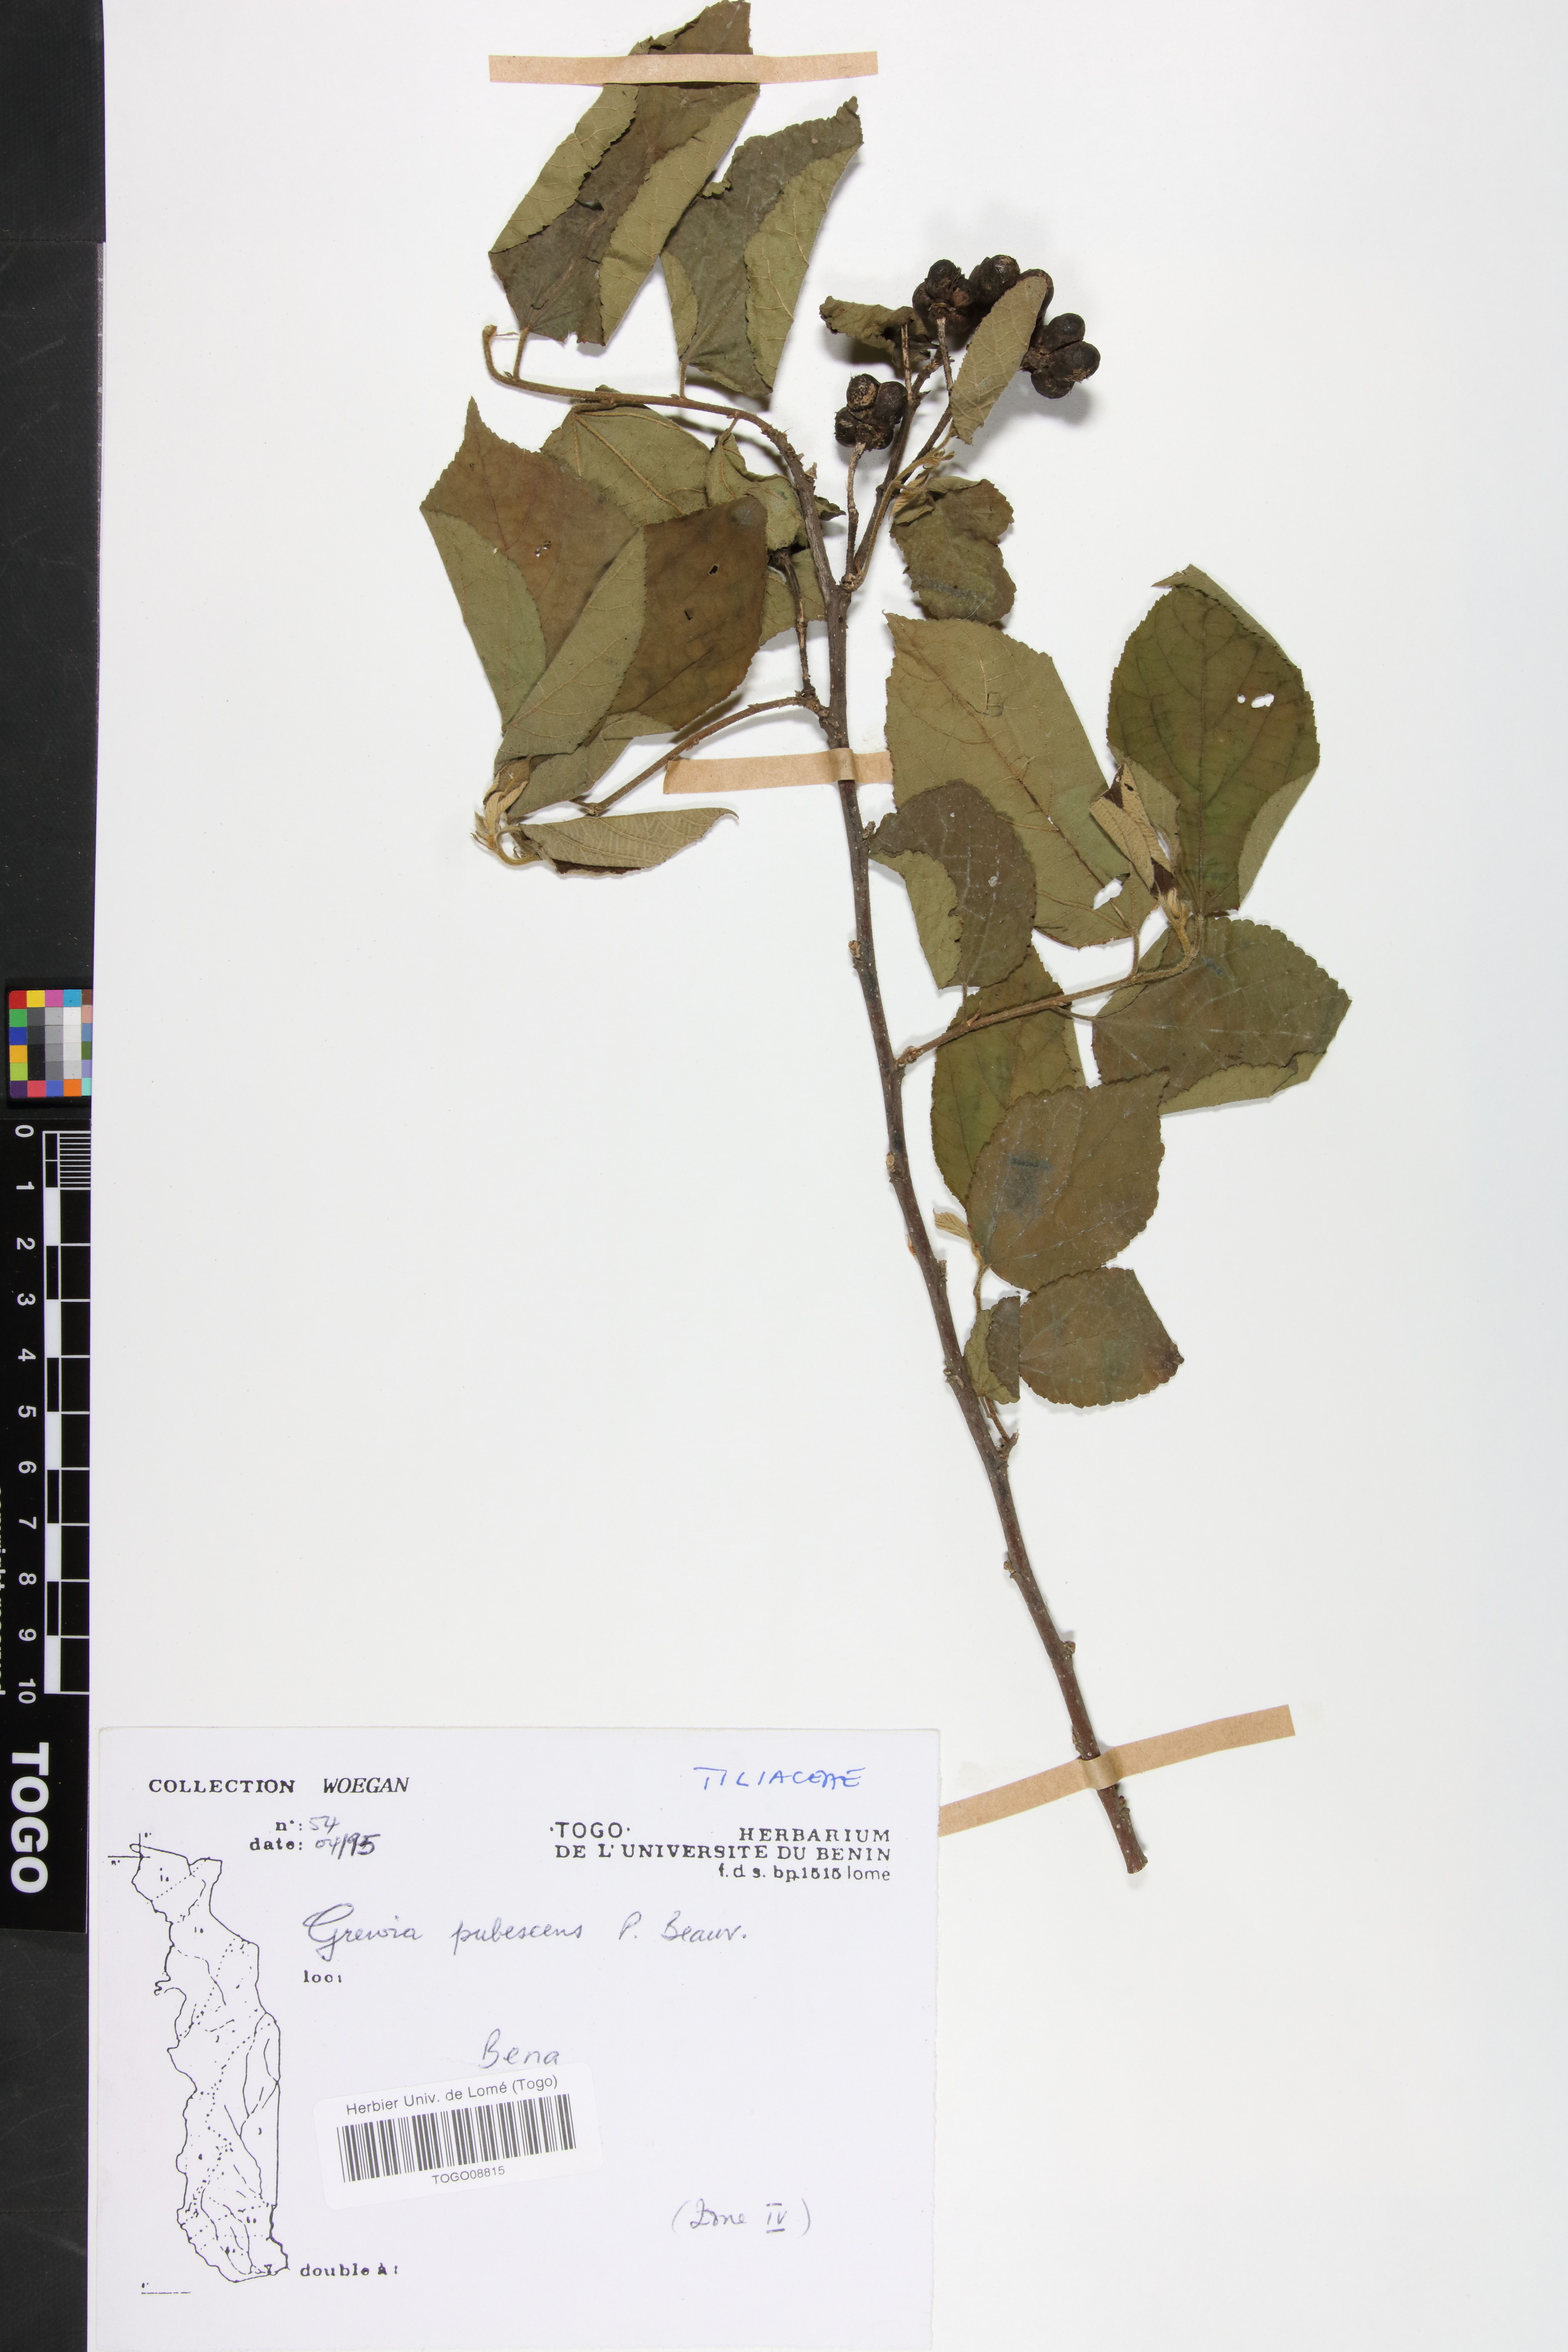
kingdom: Plantae
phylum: Tracheophyta
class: Magnoliopsida
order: Malvales
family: Malvaceae
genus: Grewia
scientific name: Grewia pubescens
